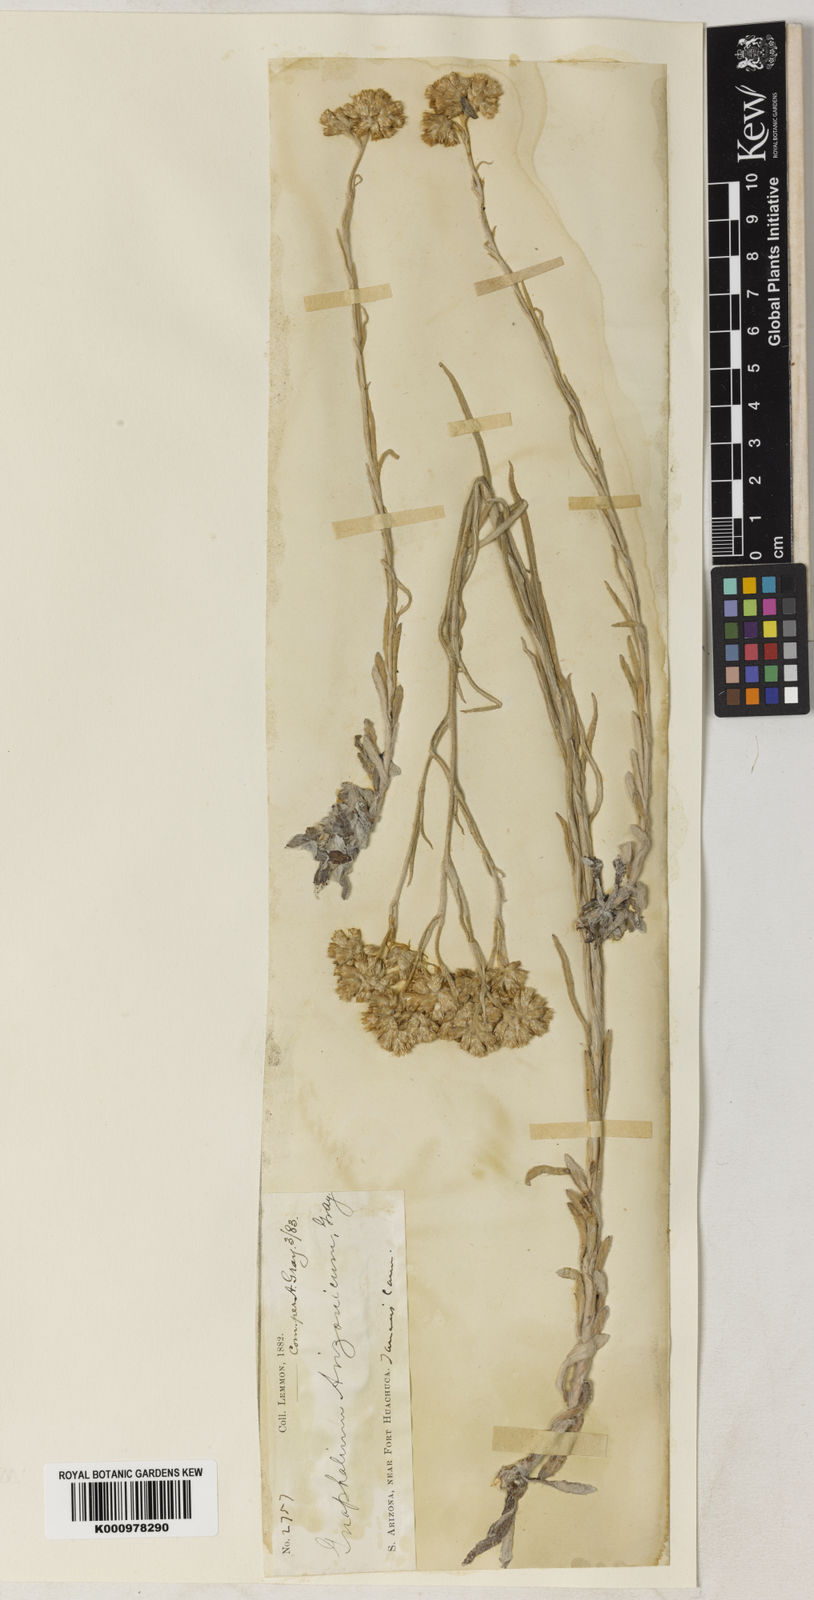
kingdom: Plantae
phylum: Tracheophyta
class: Magnoliopsida
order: Asterales
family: Asteraceae
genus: Pseudognaphalium
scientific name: Pseudognaphalium arizonicum
